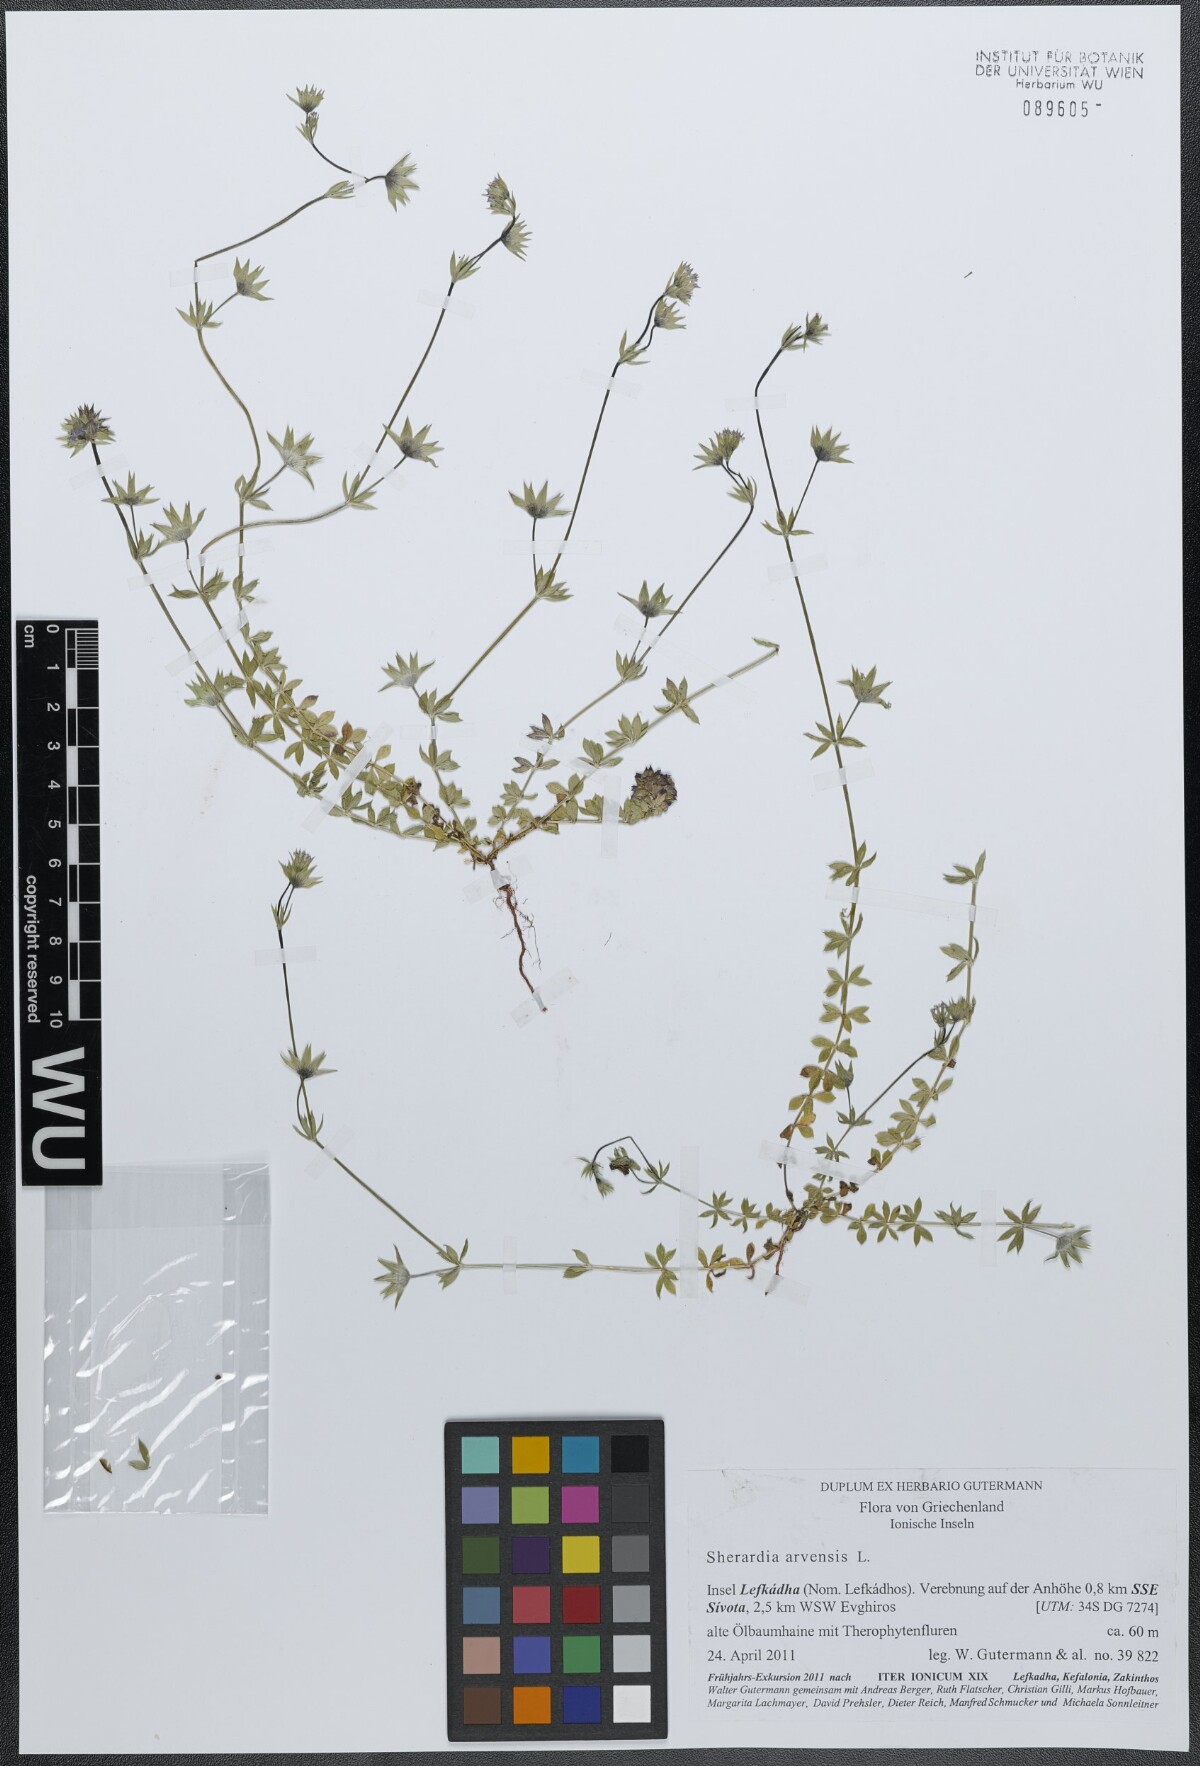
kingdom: Plantae
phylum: Tracheophyta
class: Magnoliopsida
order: Gentianales
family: Rubiaceae
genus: Sherardia
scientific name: Sherardia arvensis
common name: Field madder
